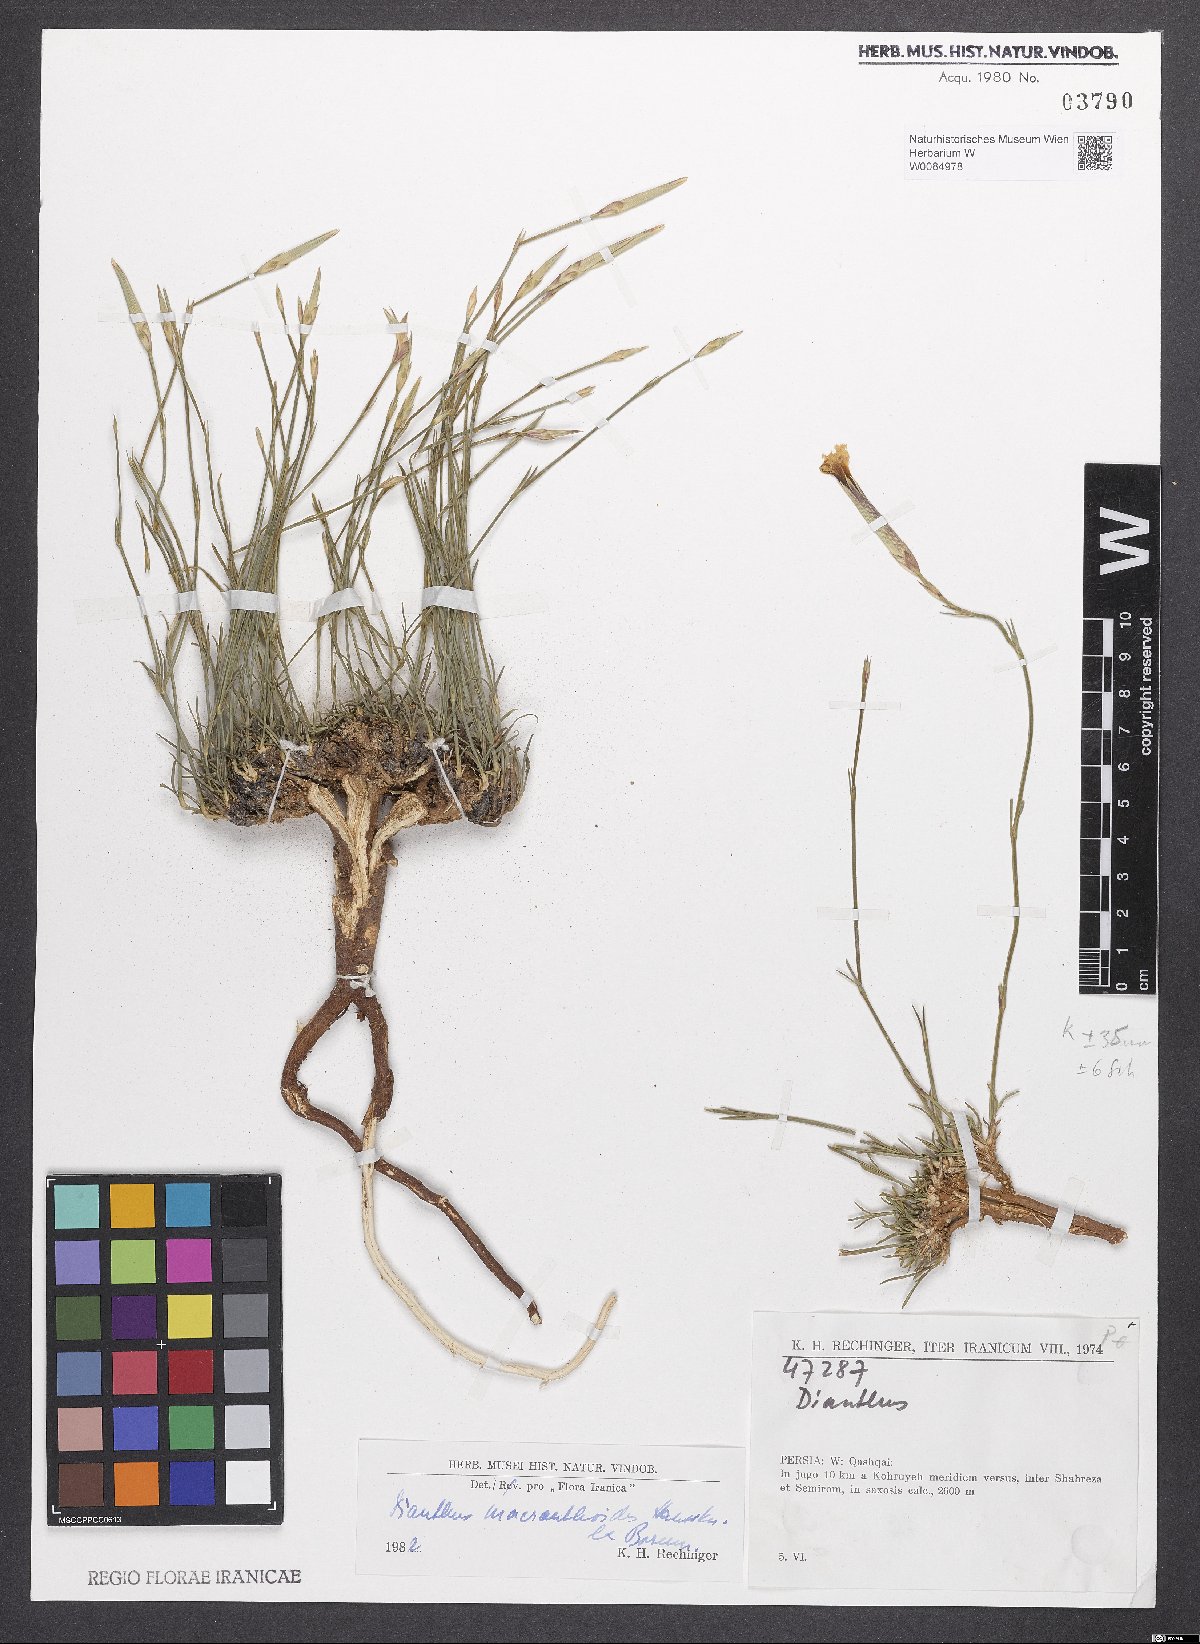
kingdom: Plantae
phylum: Tracheophyta
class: Magnoliopsida
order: Caryophyllales
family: Caryophyllaceae
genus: Dianthus
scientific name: Dianthus macranthoides
